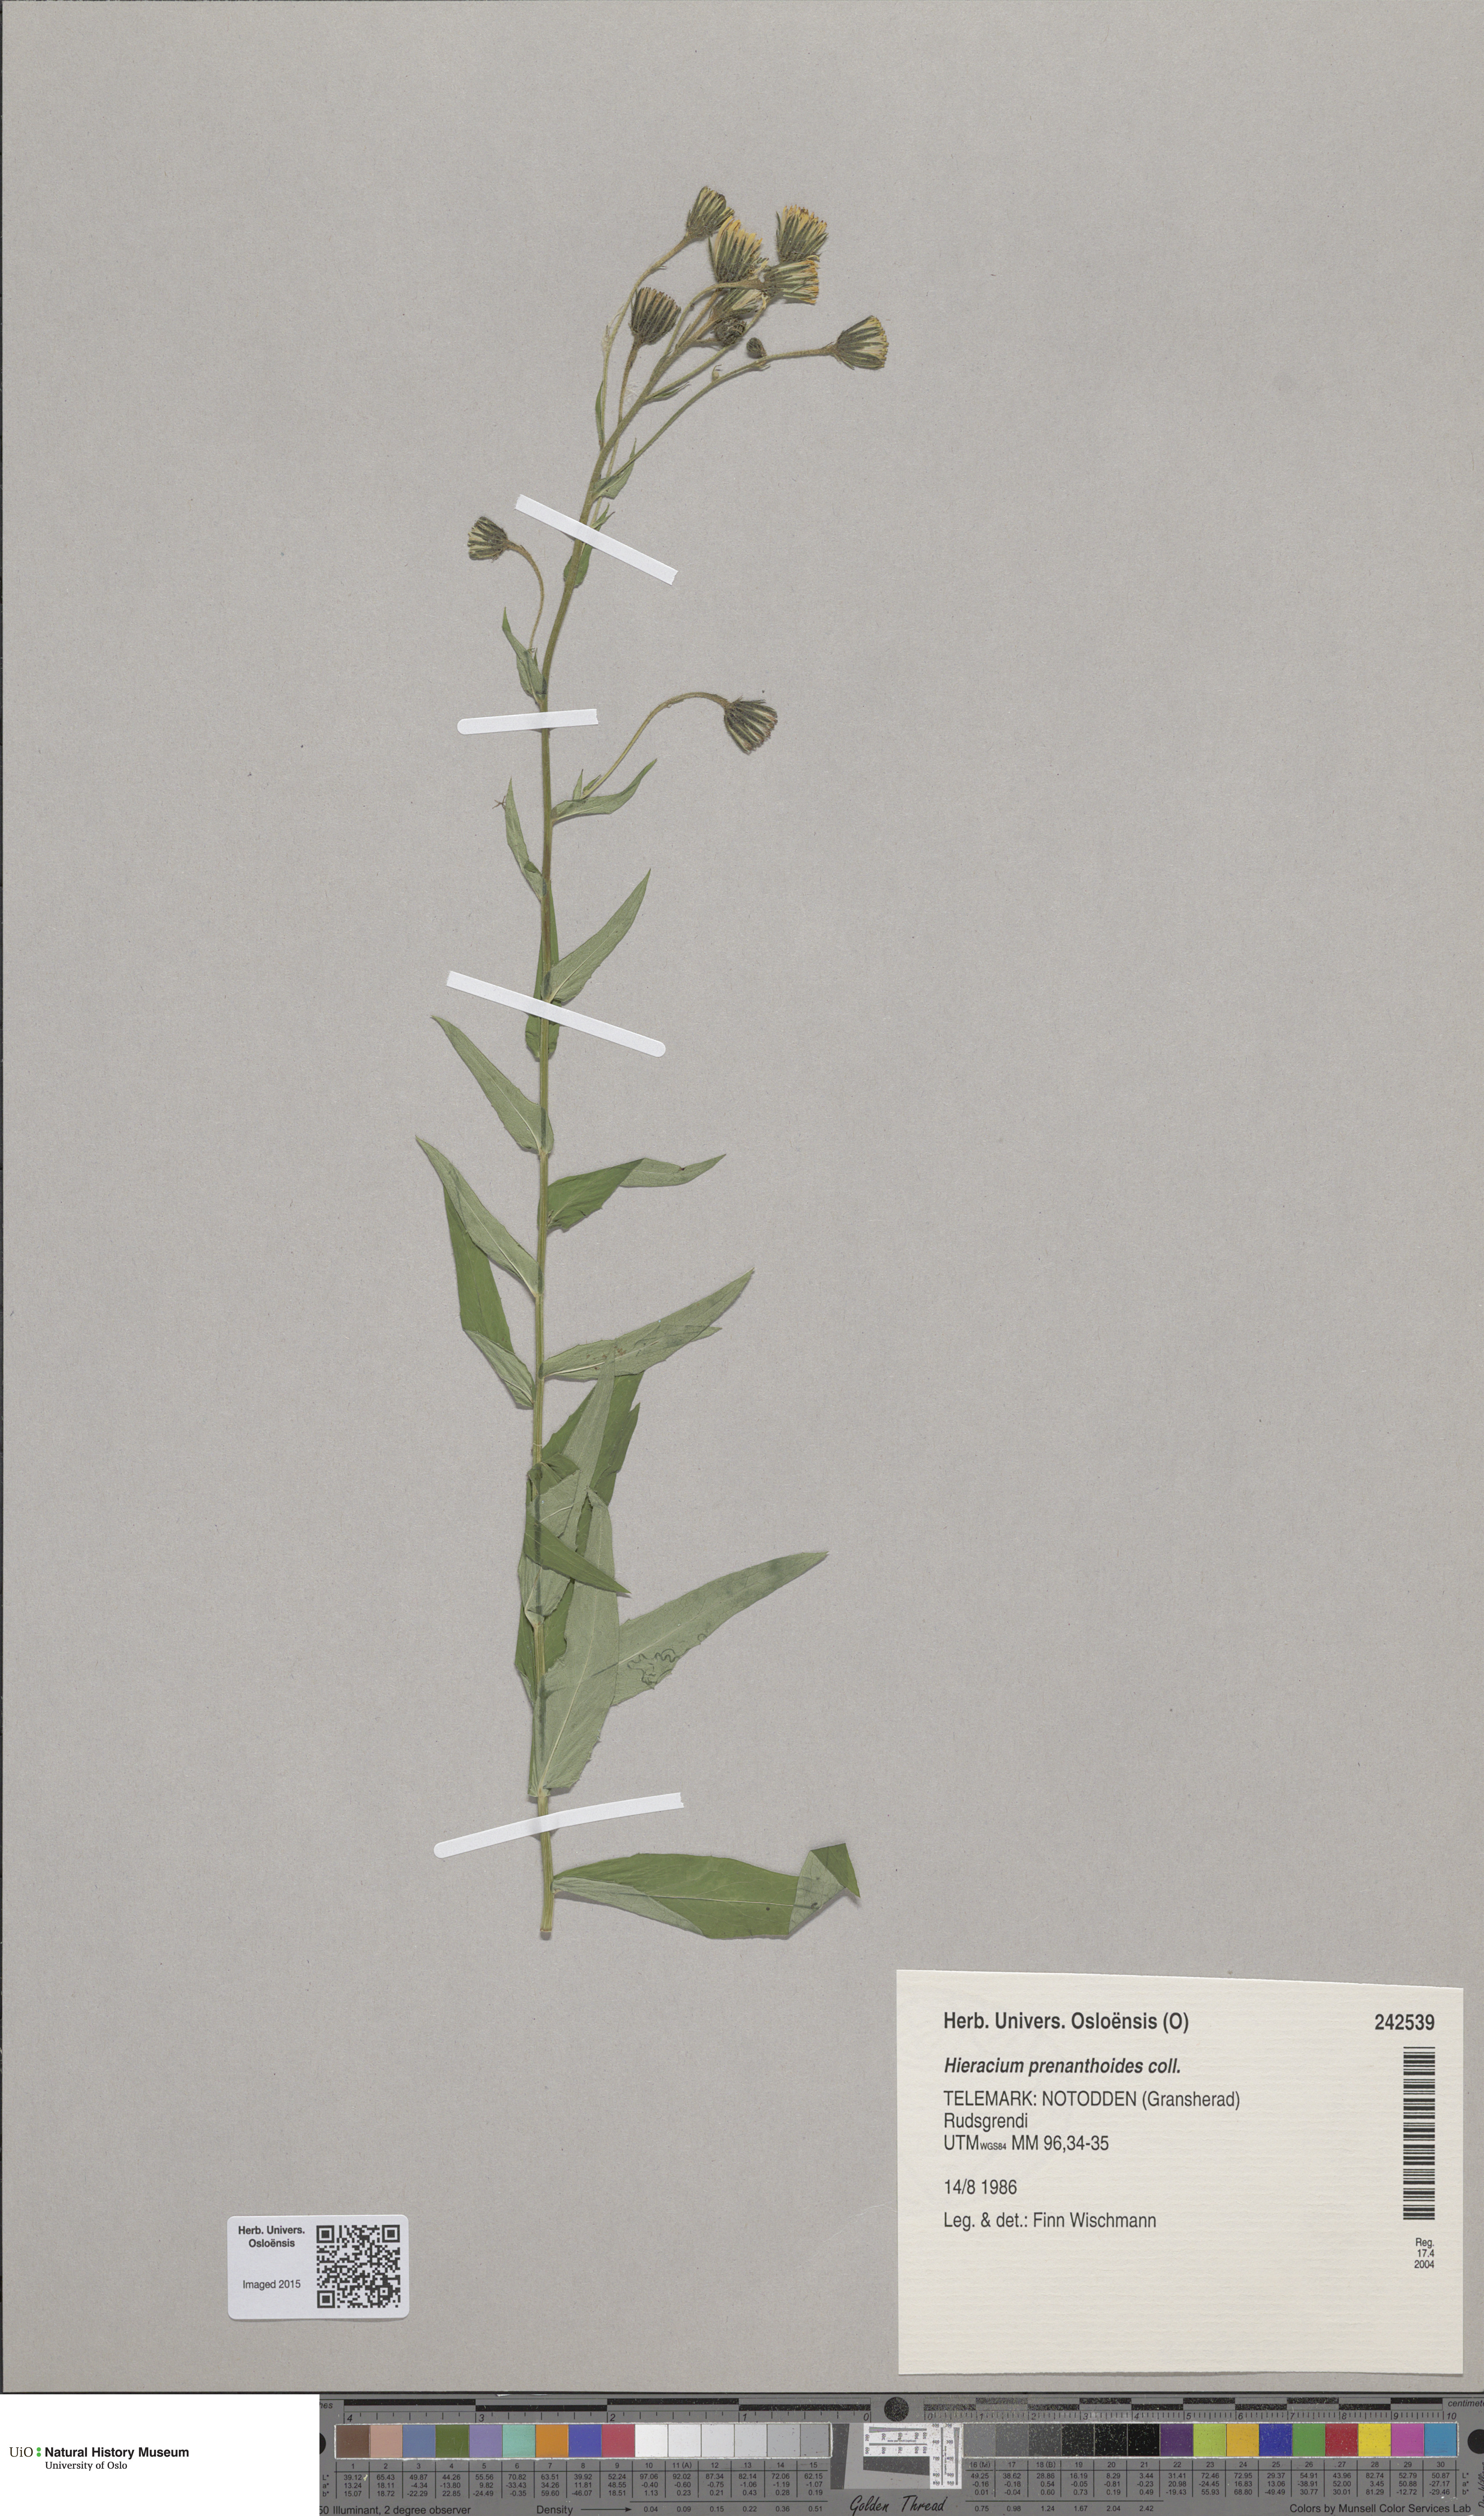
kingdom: Plantae
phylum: Tracheophyta
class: Magnoliopsida
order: Asterales
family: Asteraceae
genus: Hieracium
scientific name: Hieracium prenanthoides
